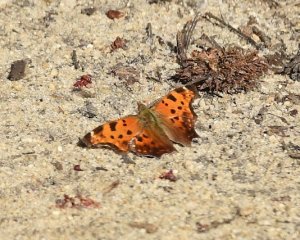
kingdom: Animalia
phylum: Arthropoda
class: Insecta
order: Lepidoptera
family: Nymphalidae
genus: Polygonia
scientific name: Polygonia comma
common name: Eastern Comma
